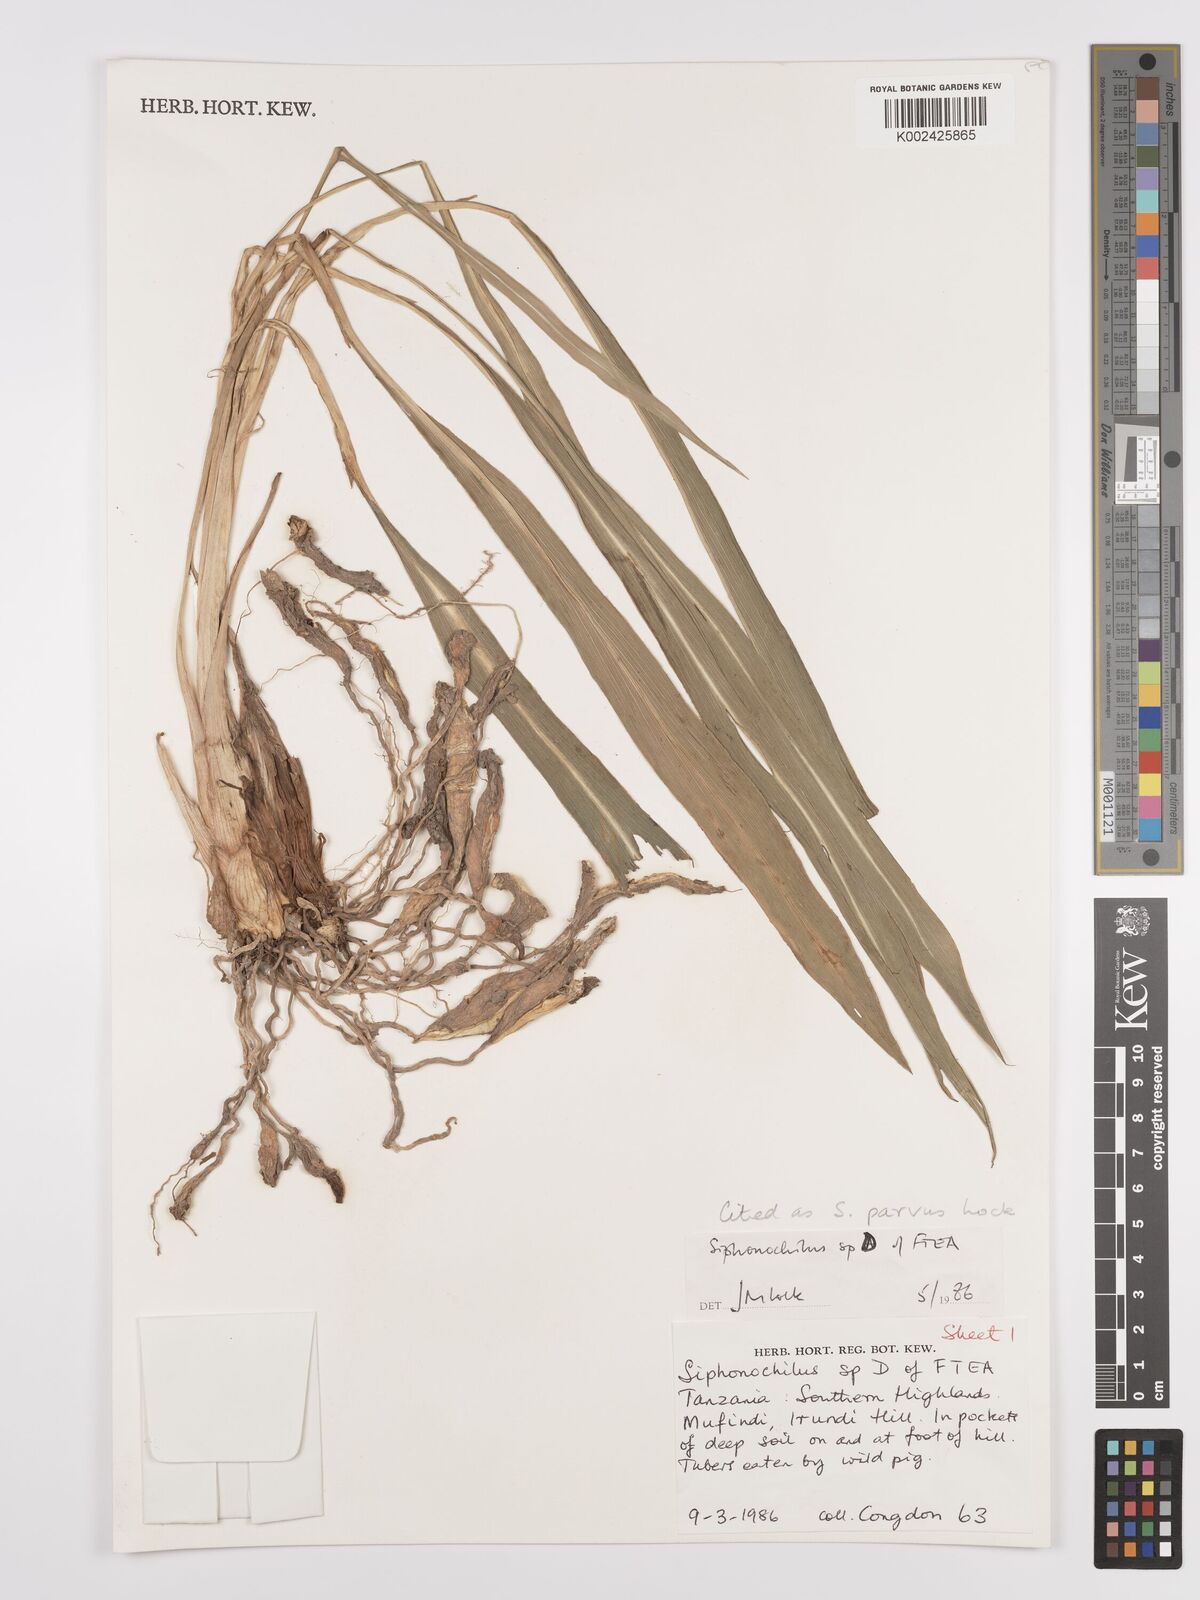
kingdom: Plantae
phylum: Tracheophyta
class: Liliopsida
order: Zingiberales
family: Zingiberaceae
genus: Siphonochilus
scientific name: Siphonochilus parvus
